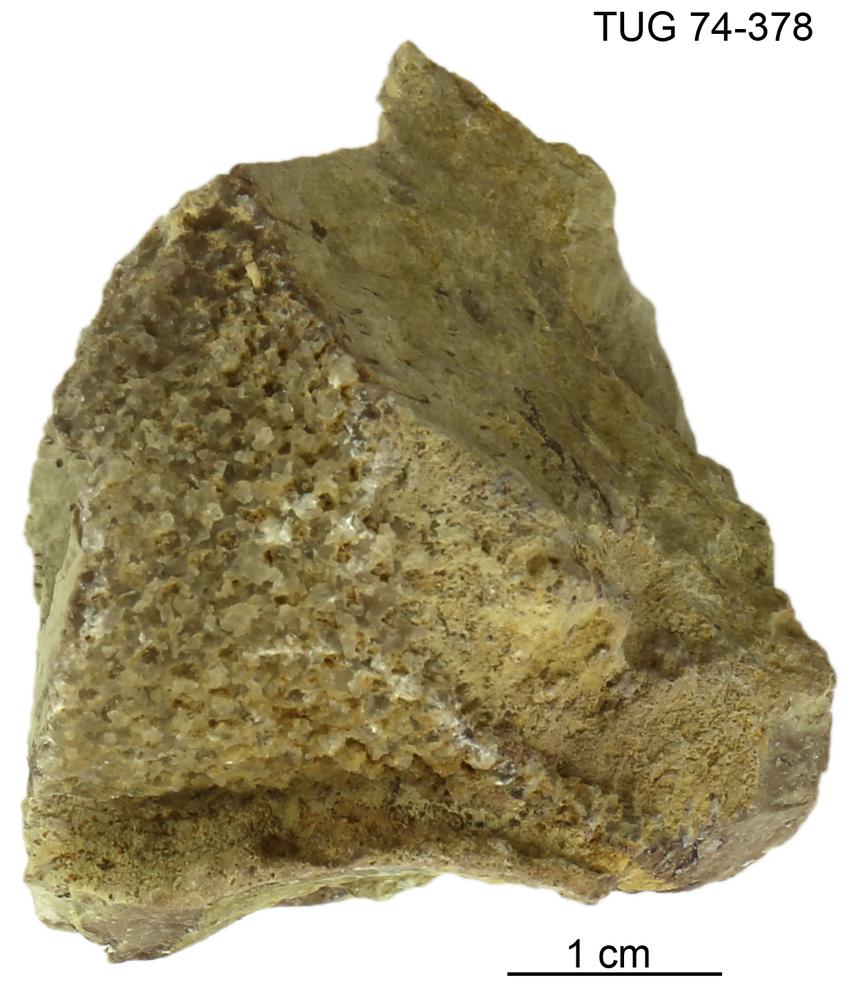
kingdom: Plantae
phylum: Chlorophyta
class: Chlorophyceae
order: Receptaculitales
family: Receptaculitaceae
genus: Receptaculites
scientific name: Receptaculites
